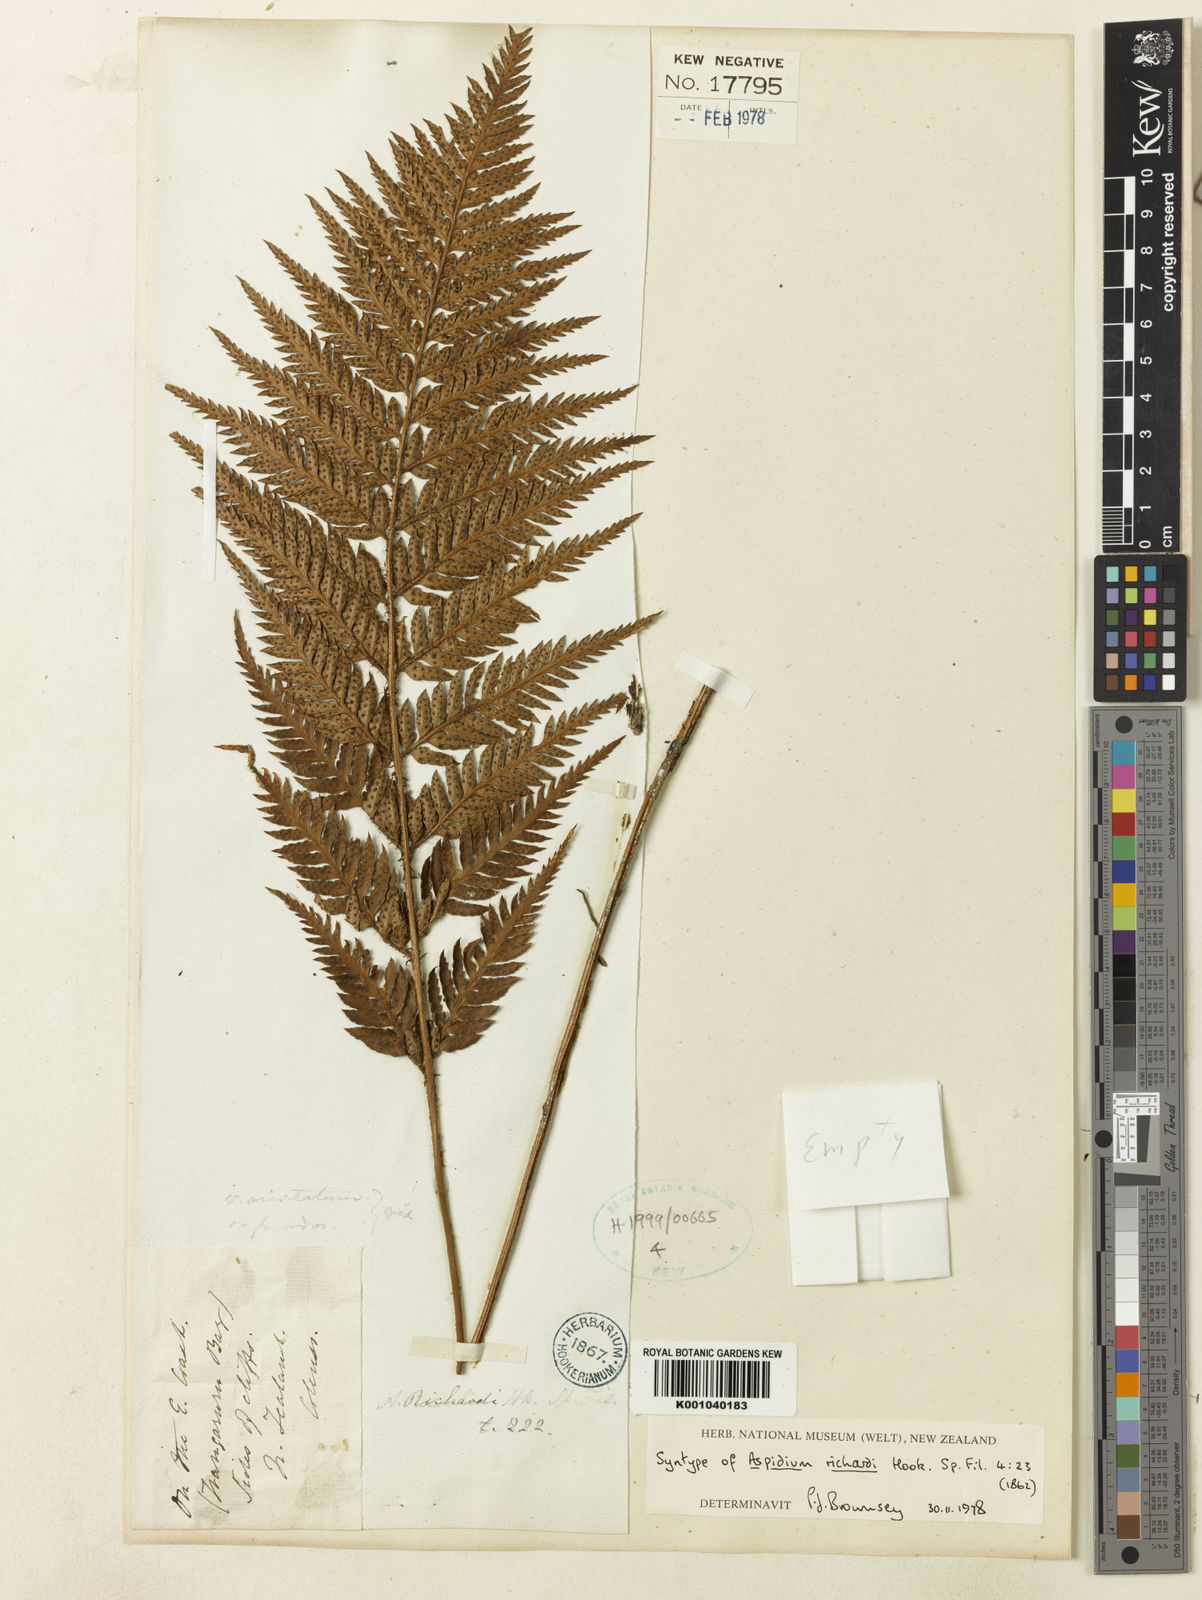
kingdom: Plantae
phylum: Tracheophyta
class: Polypodiopsida
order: Polypodiales
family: Dryopteridaceae
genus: Polystichum
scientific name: Polystichum neozelandicum
